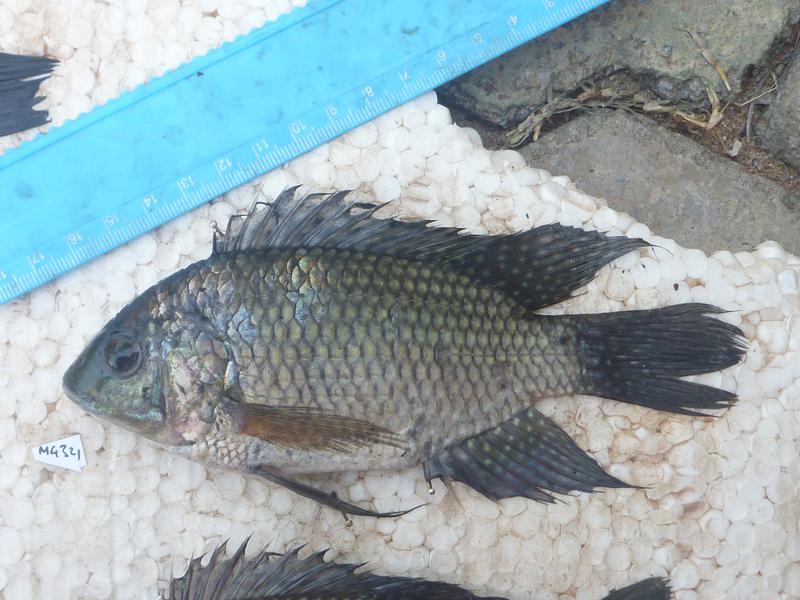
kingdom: Animalia
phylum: Chordata
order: Perciformes
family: Cichlidae
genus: Oreochromis
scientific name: Oreochromis leucostictus
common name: Blue spotted tilapia
